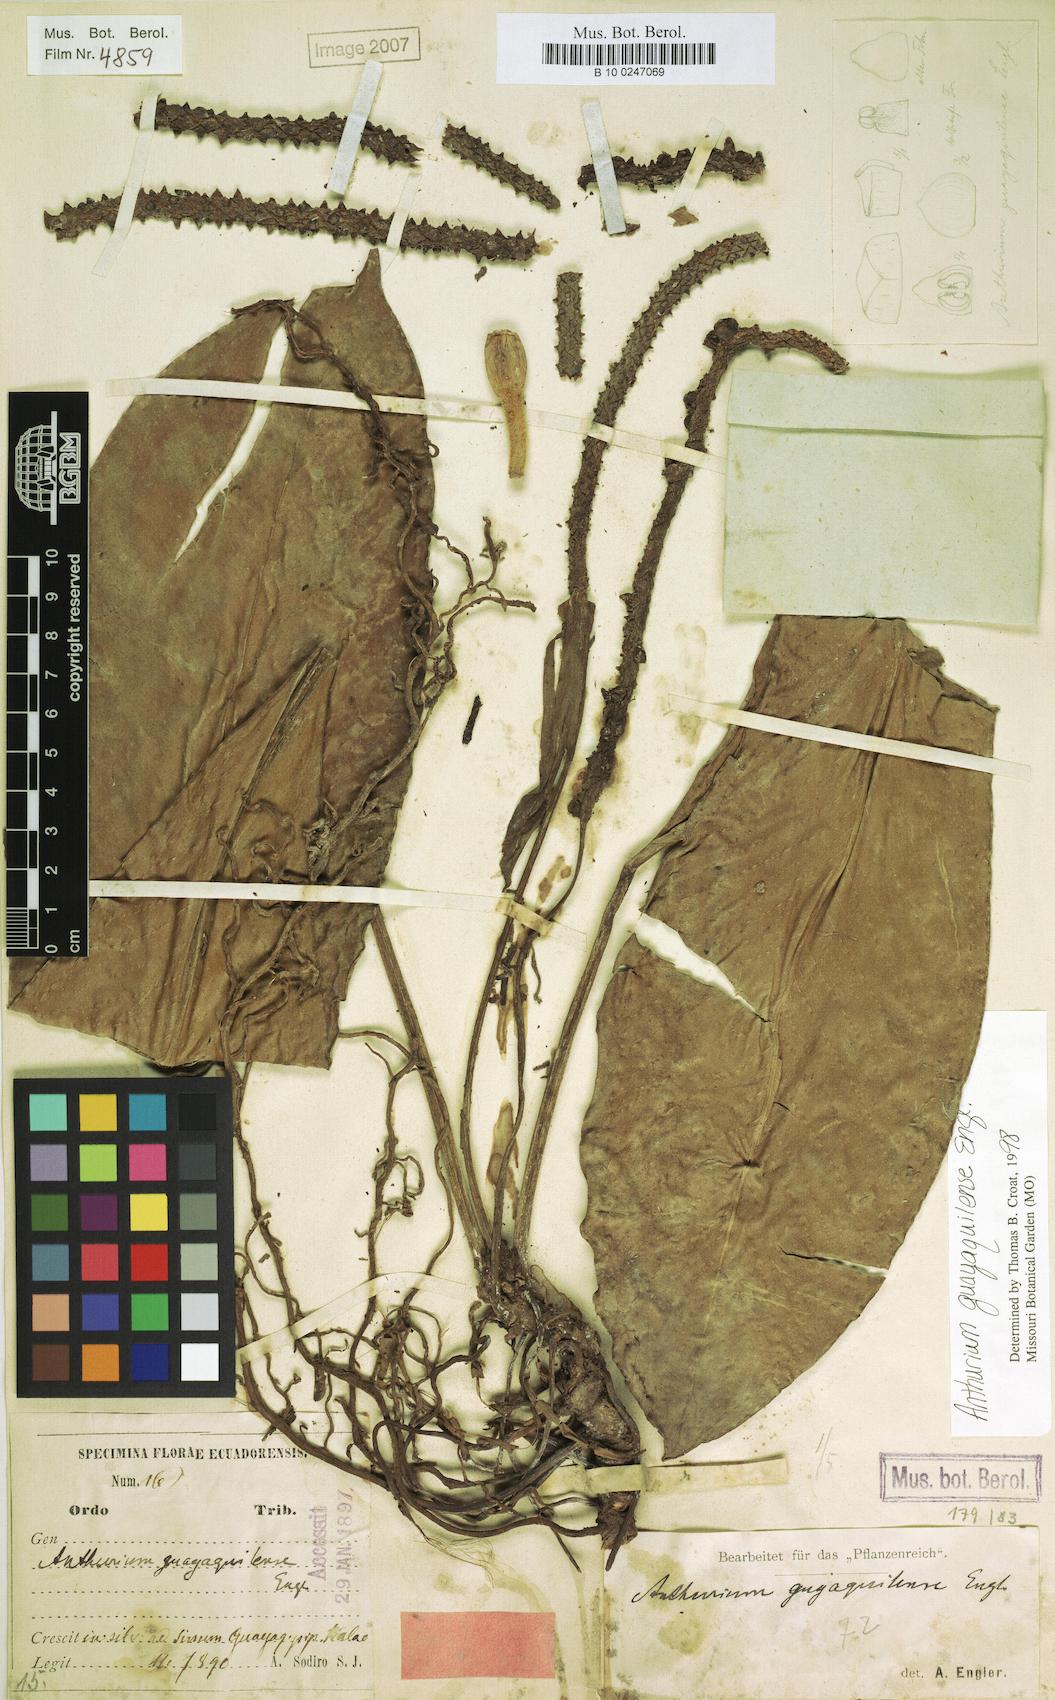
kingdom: Plantae
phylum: Tracheophyta
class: Liliopsida
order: Alismatales
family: Araceae
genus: Anthurium
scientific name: Anthurium guayaquilense
